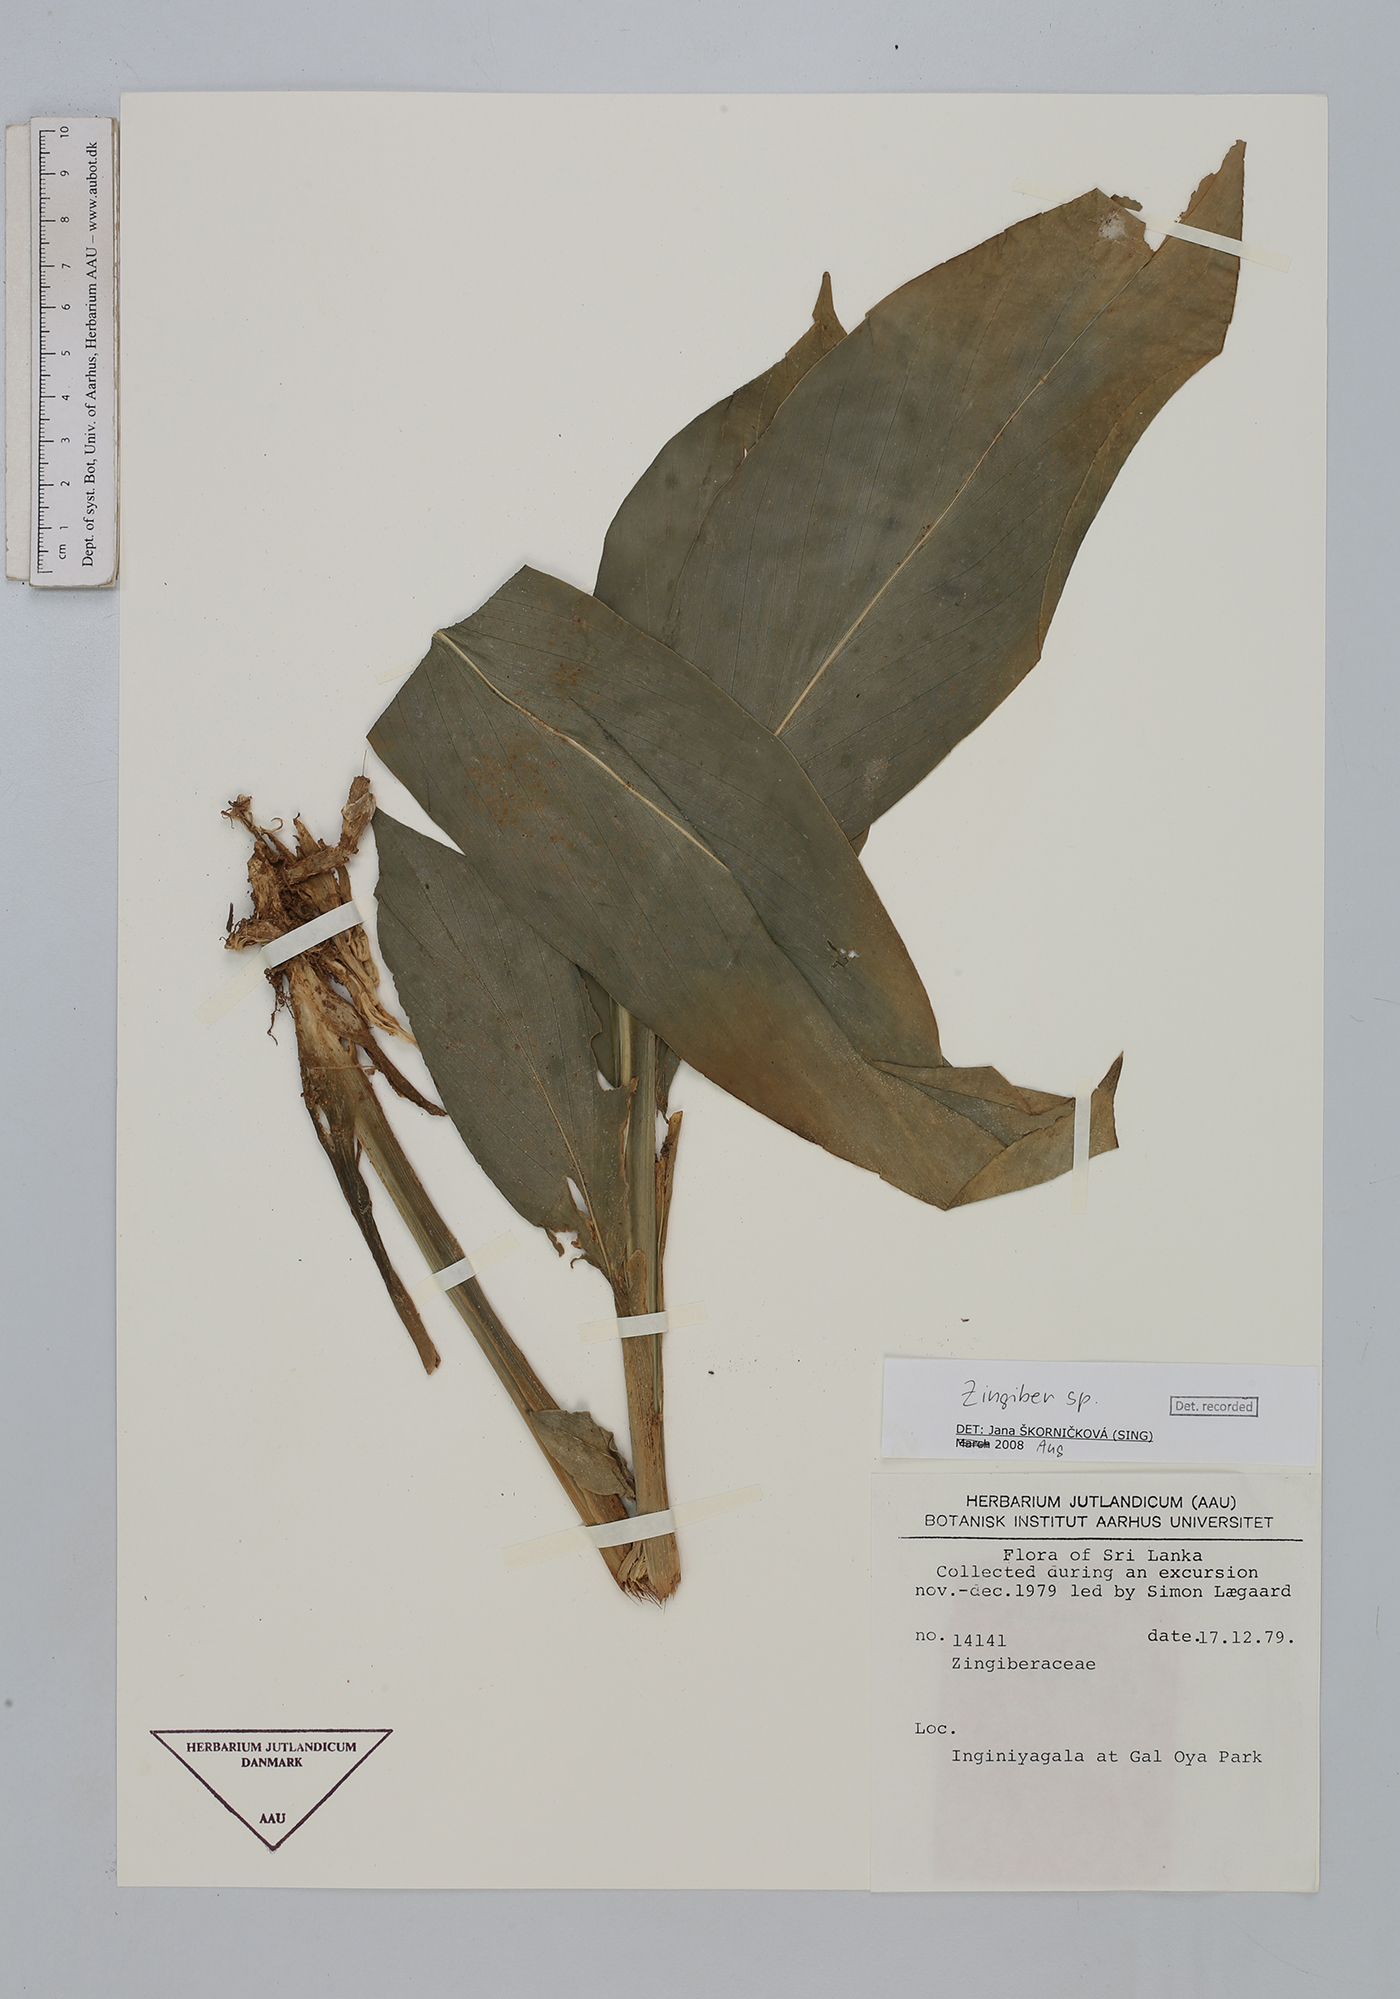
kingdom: Plantae
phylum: Tracheophyta
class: Liliopsida
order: Zingiberales
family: Zingiberaceae
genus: Zingiber
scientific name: Zingiber
